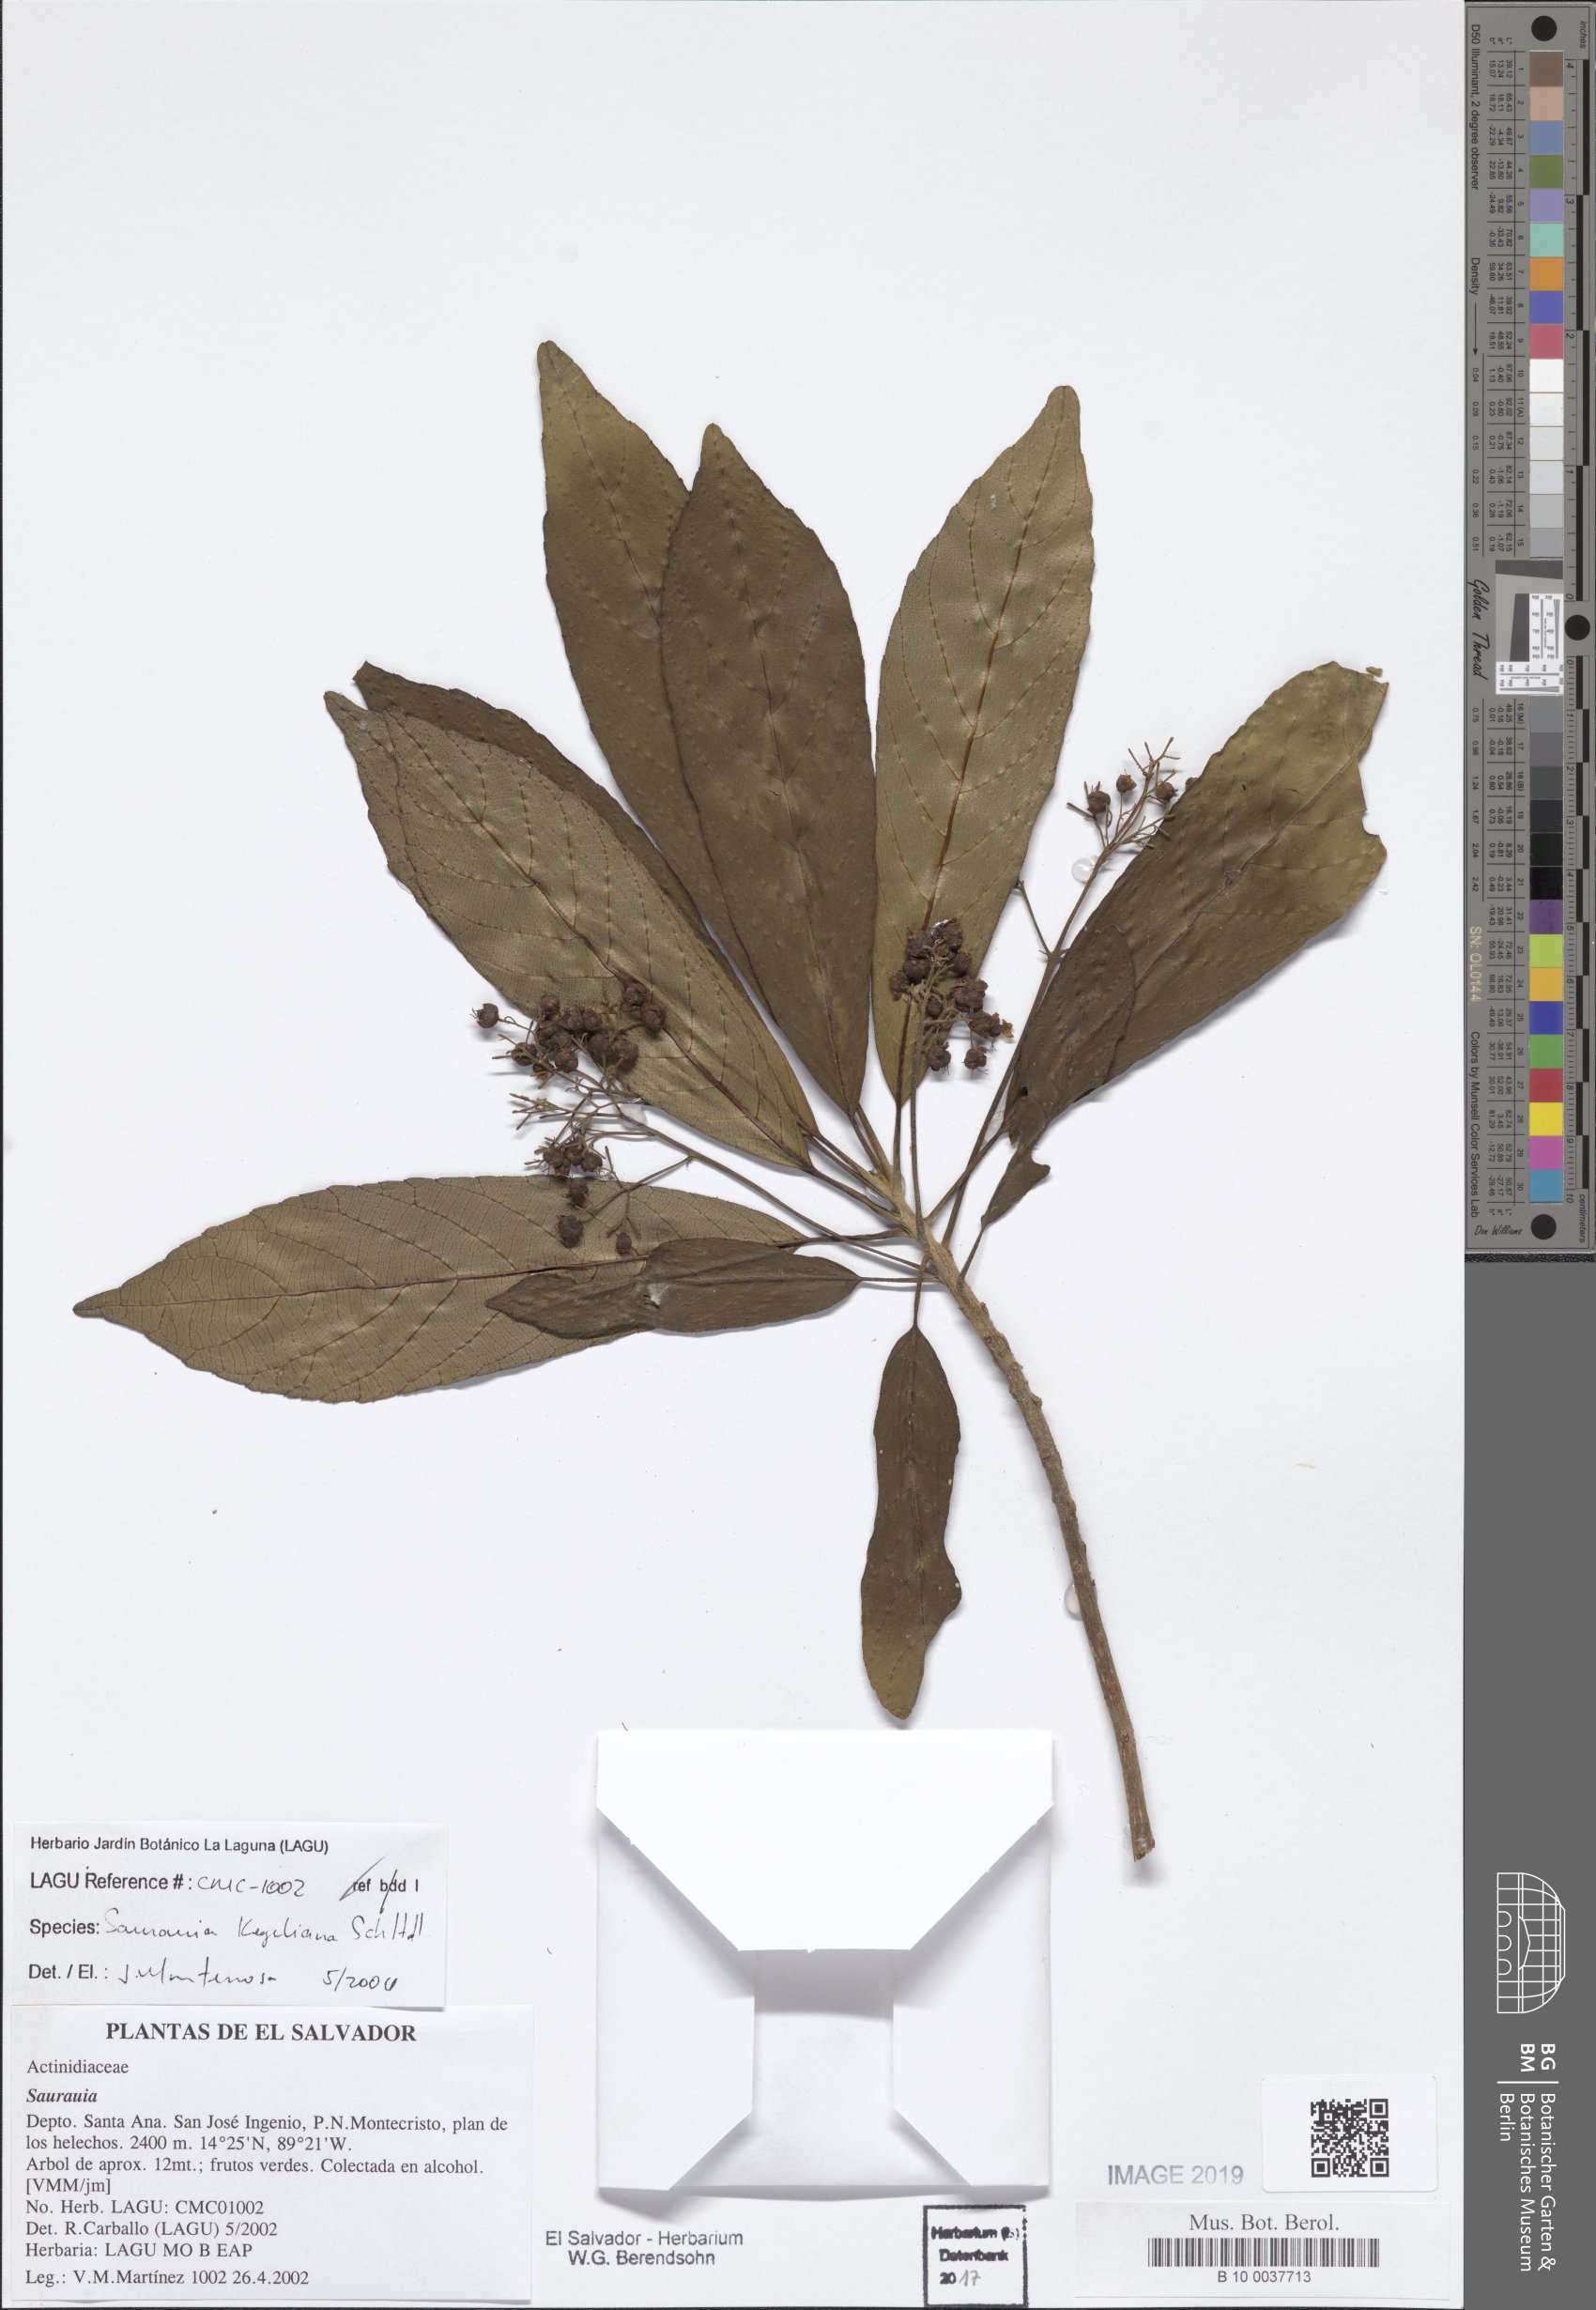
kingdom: Plantae
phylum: Tracheophyta
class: Magnoliopsida
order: Ericales
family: Actinidiaceae
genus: Saurauia
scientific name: Saurauia kegeliana
